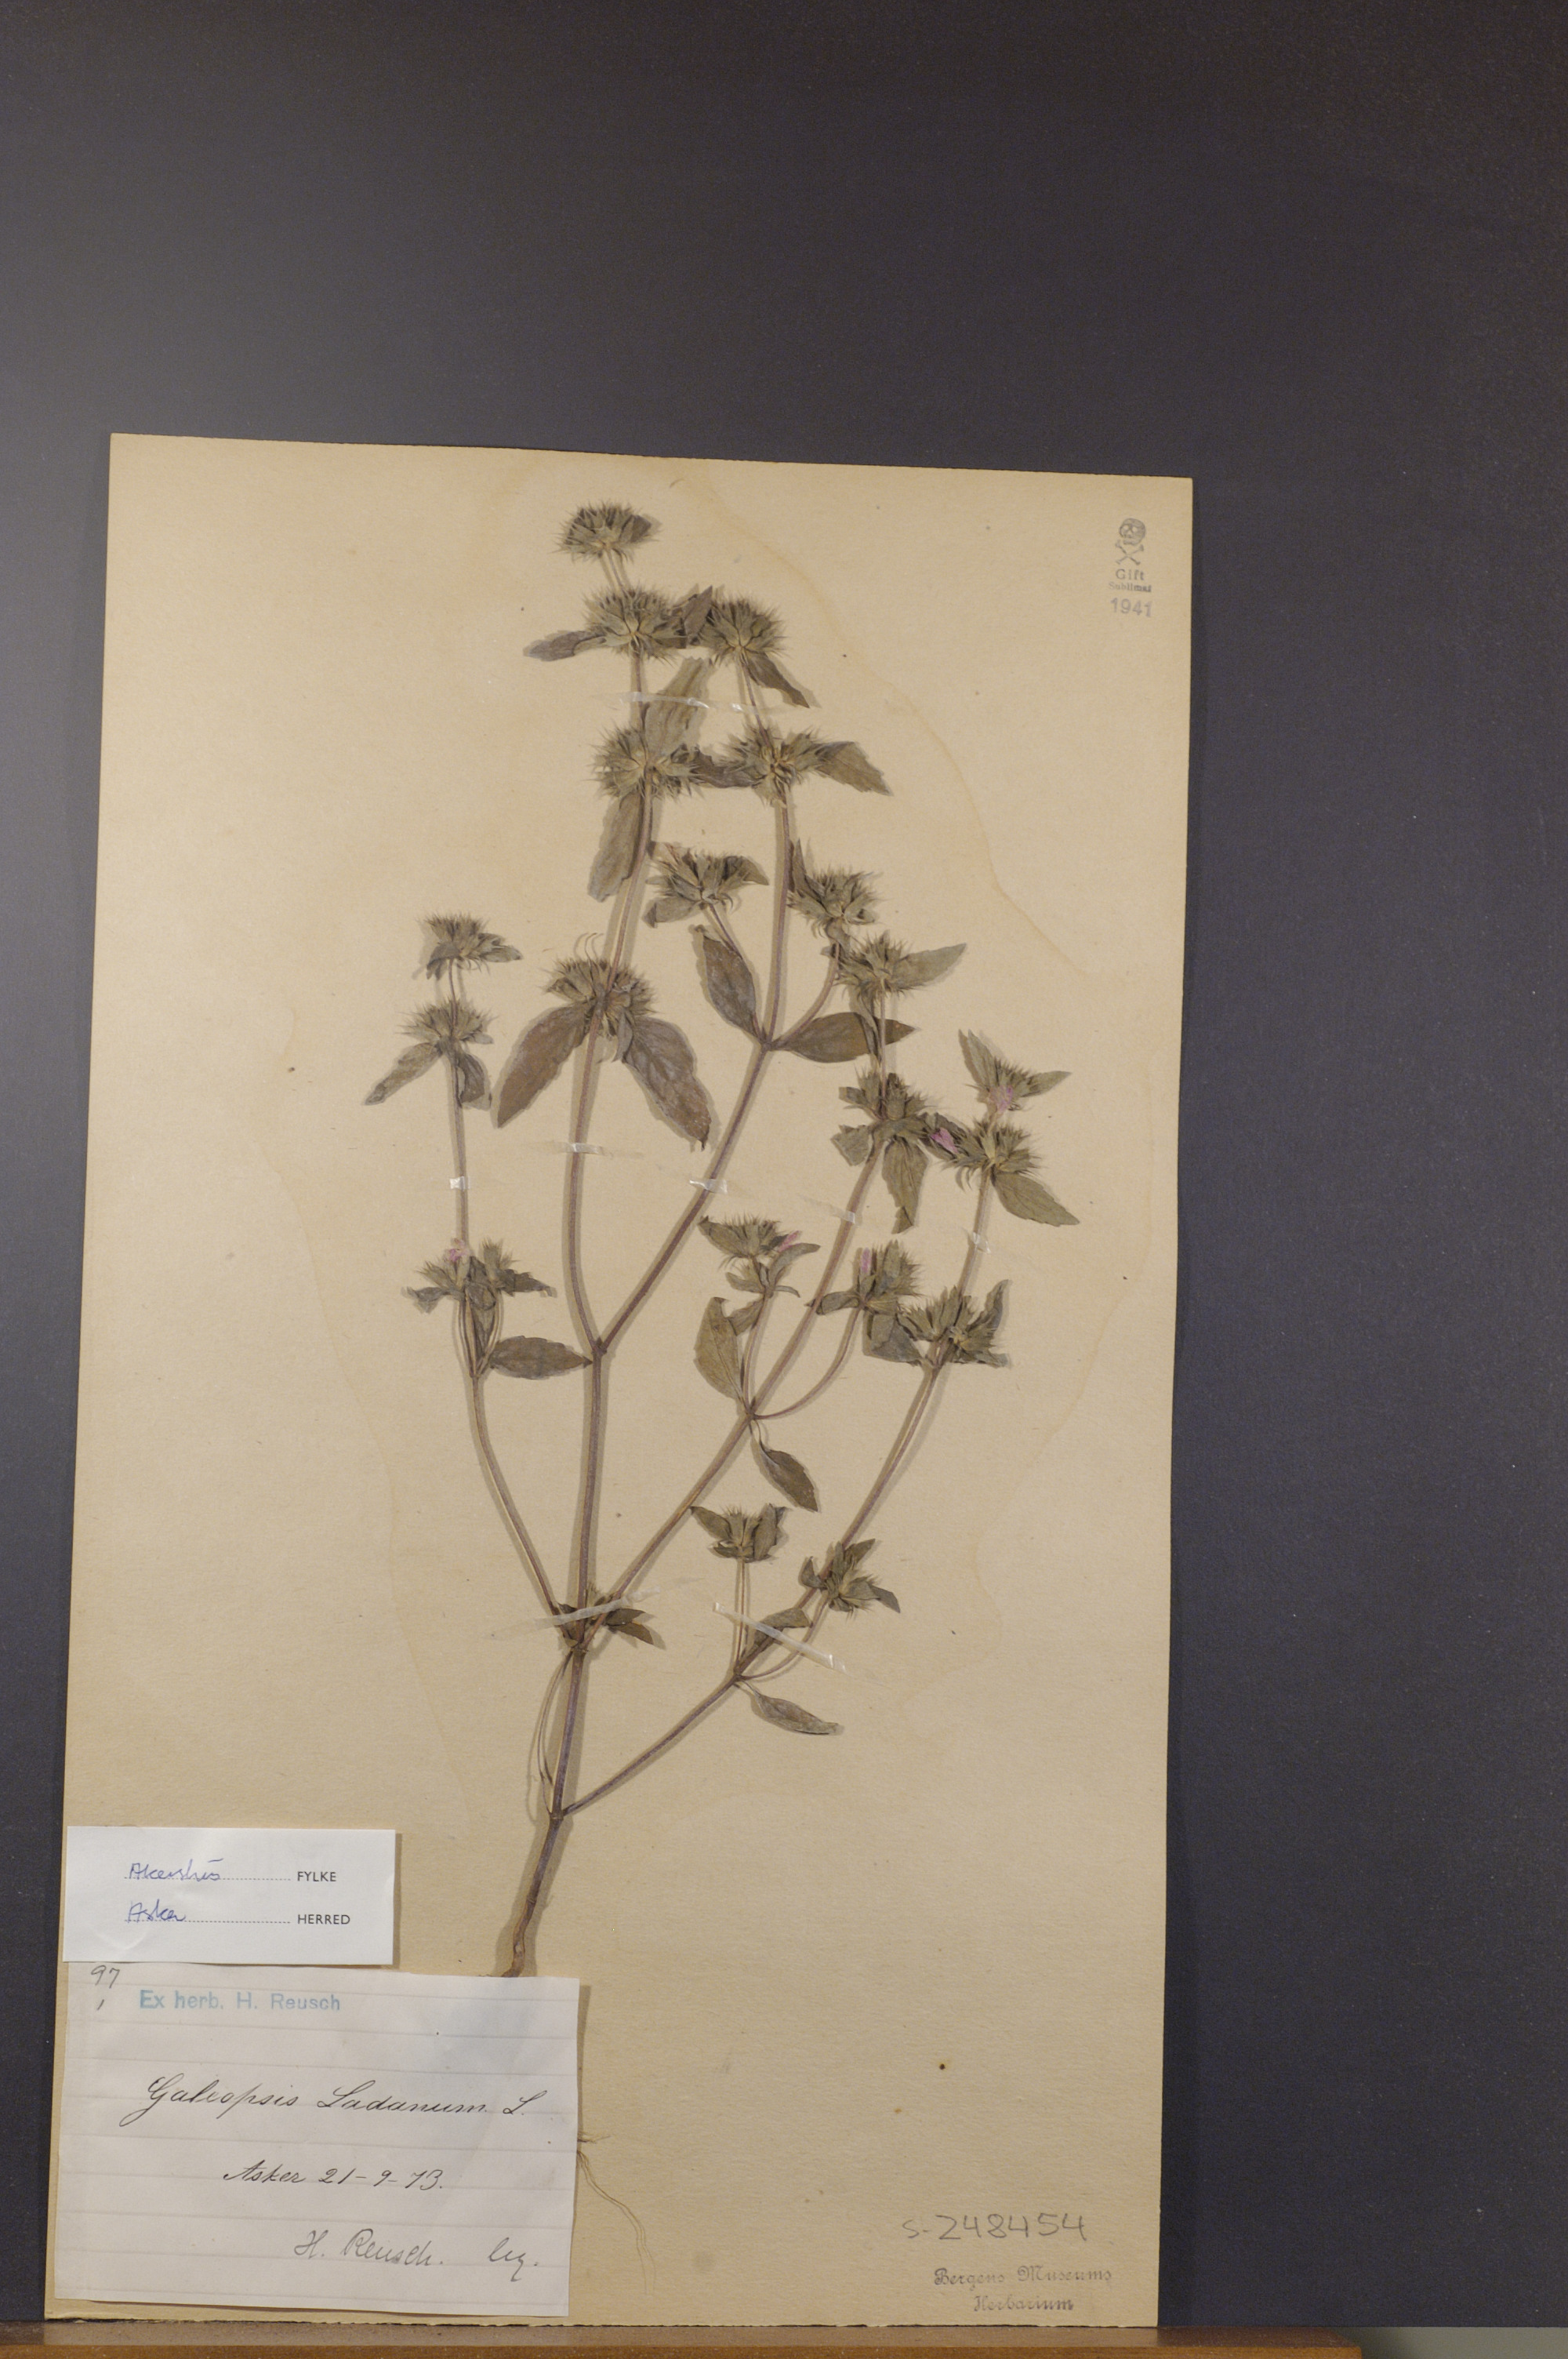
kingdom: Plantae
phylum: Tracheophyta
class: Magnoliopsida
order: Lamiales
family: Lamiaceae
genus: Galeopsis
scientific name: Galeopsis ladanum
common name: Broad-leaved hemp-nettle
